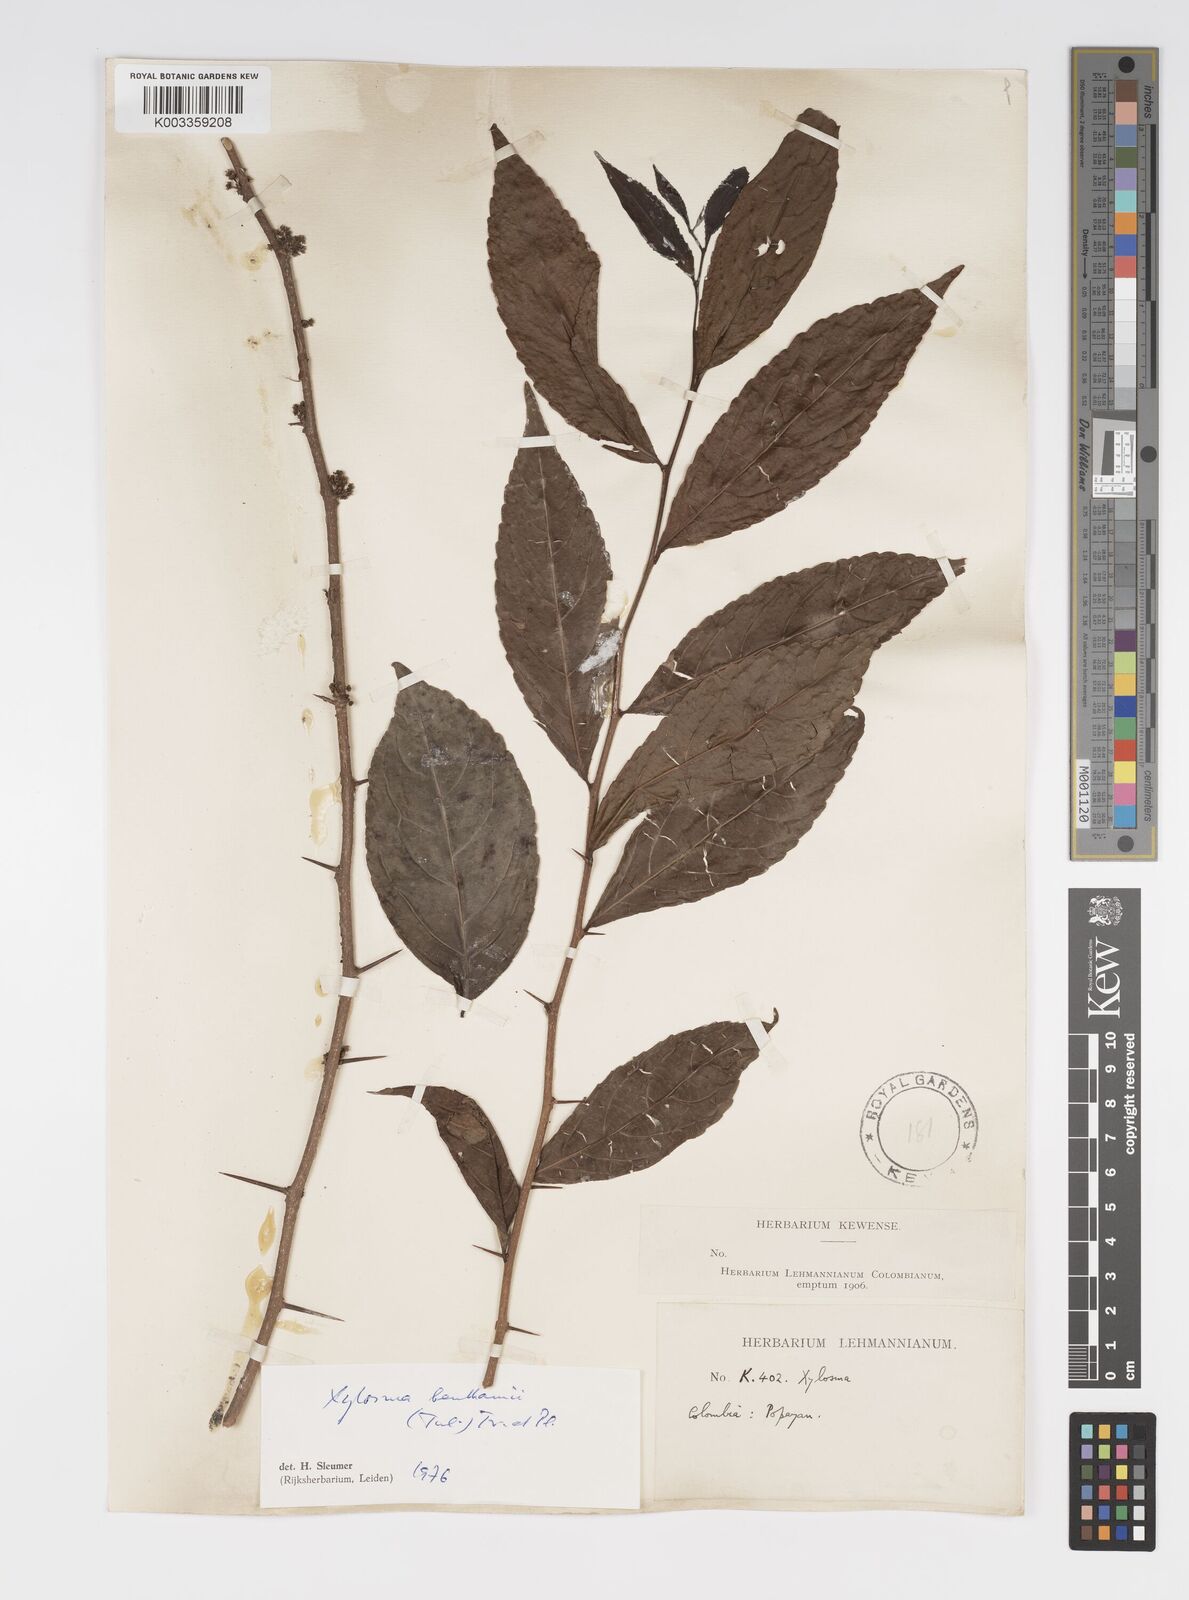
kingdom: Plantae
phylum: Tracheophyta
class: Magnoliopsida
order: Malpighiales
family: Salicaceae
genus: Xylosma
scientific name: Xylosma benthamii
